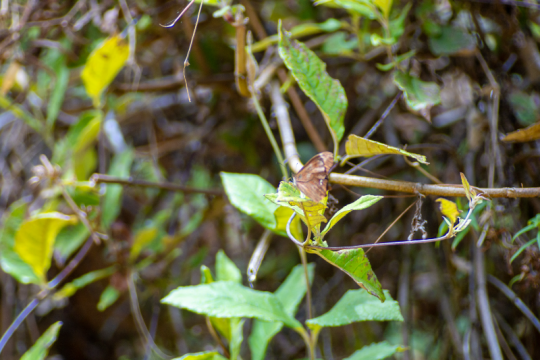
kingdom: Animalia
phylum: Arthropoda
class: Insecta
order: Lepidoptera
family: Nymphalidae
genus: Lethe
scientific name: Lethe
